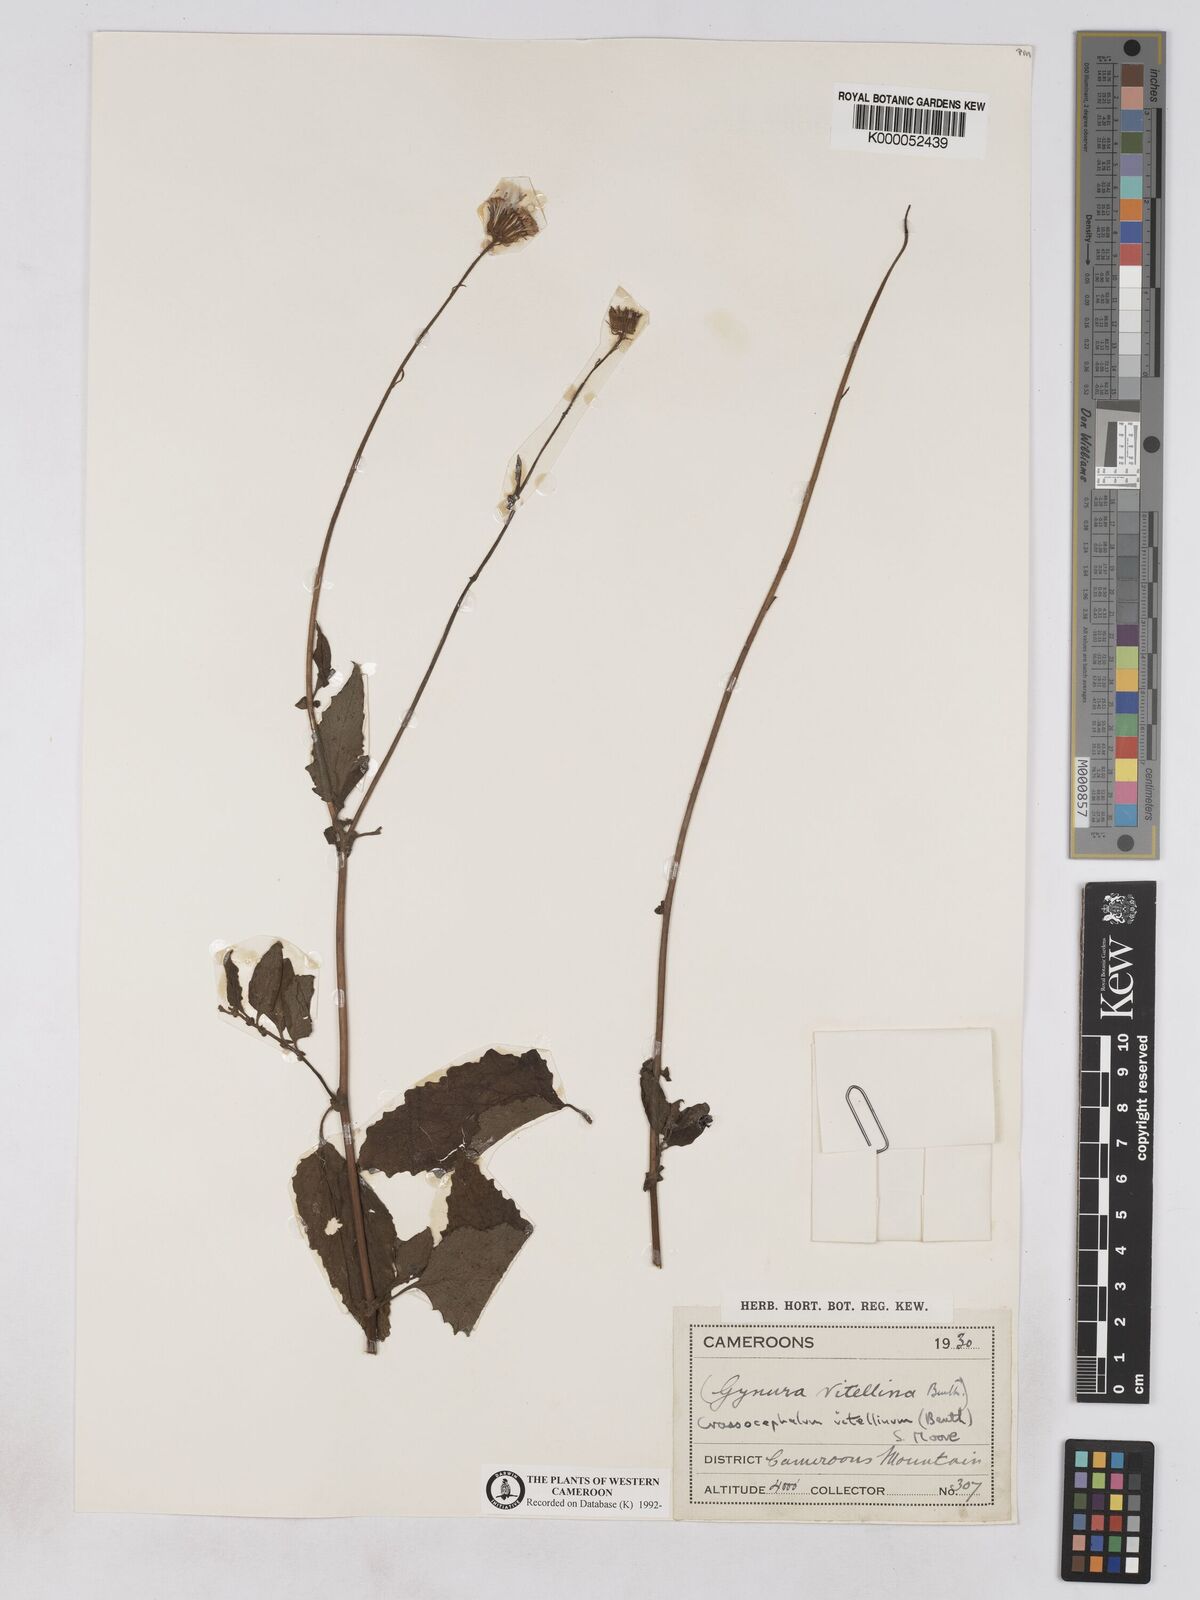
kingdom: Plantae
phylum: Tracheophyta
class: Magnoliopsida
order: Asterales
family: Asteraceae
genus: Crassocephalum
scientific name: Crassocephalum vitellinum
